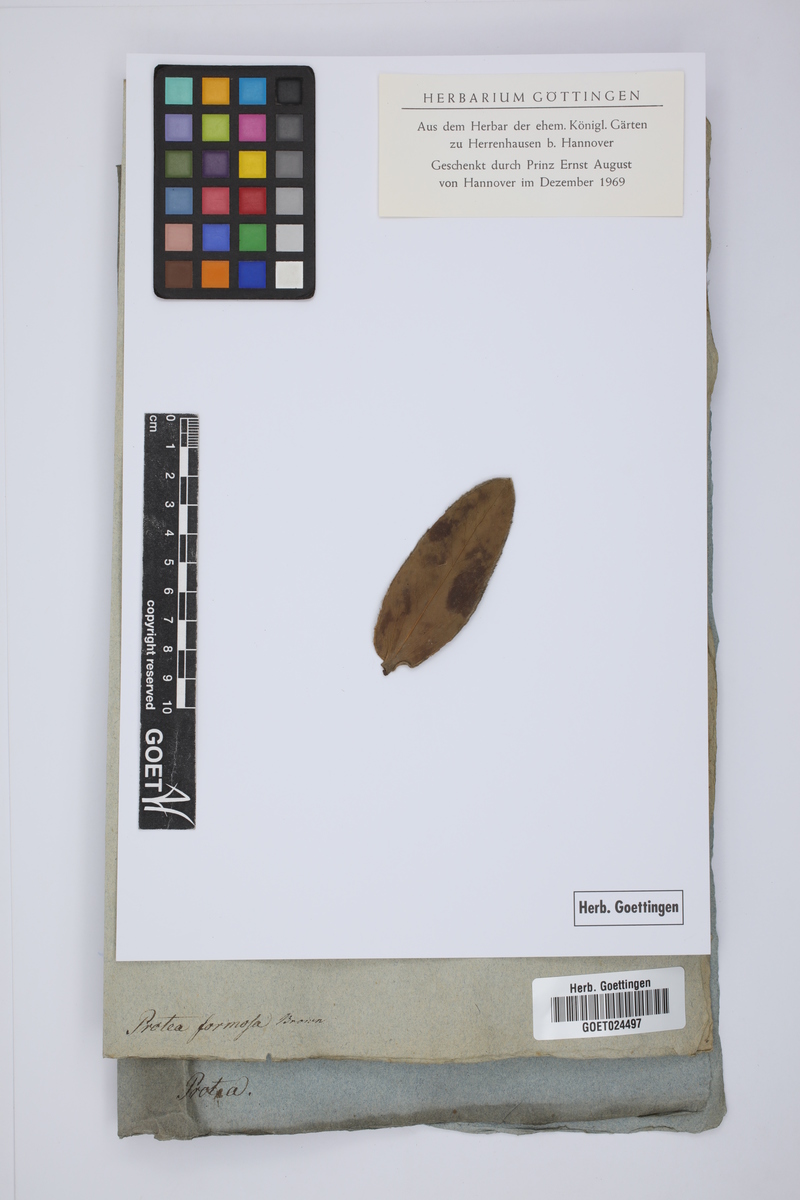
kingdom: Plantae
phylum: Tracheophyta
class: Magnoliopsida
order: Proteales
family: Proteaceae
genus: Leucospermum
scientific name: Leucospermum formosum
